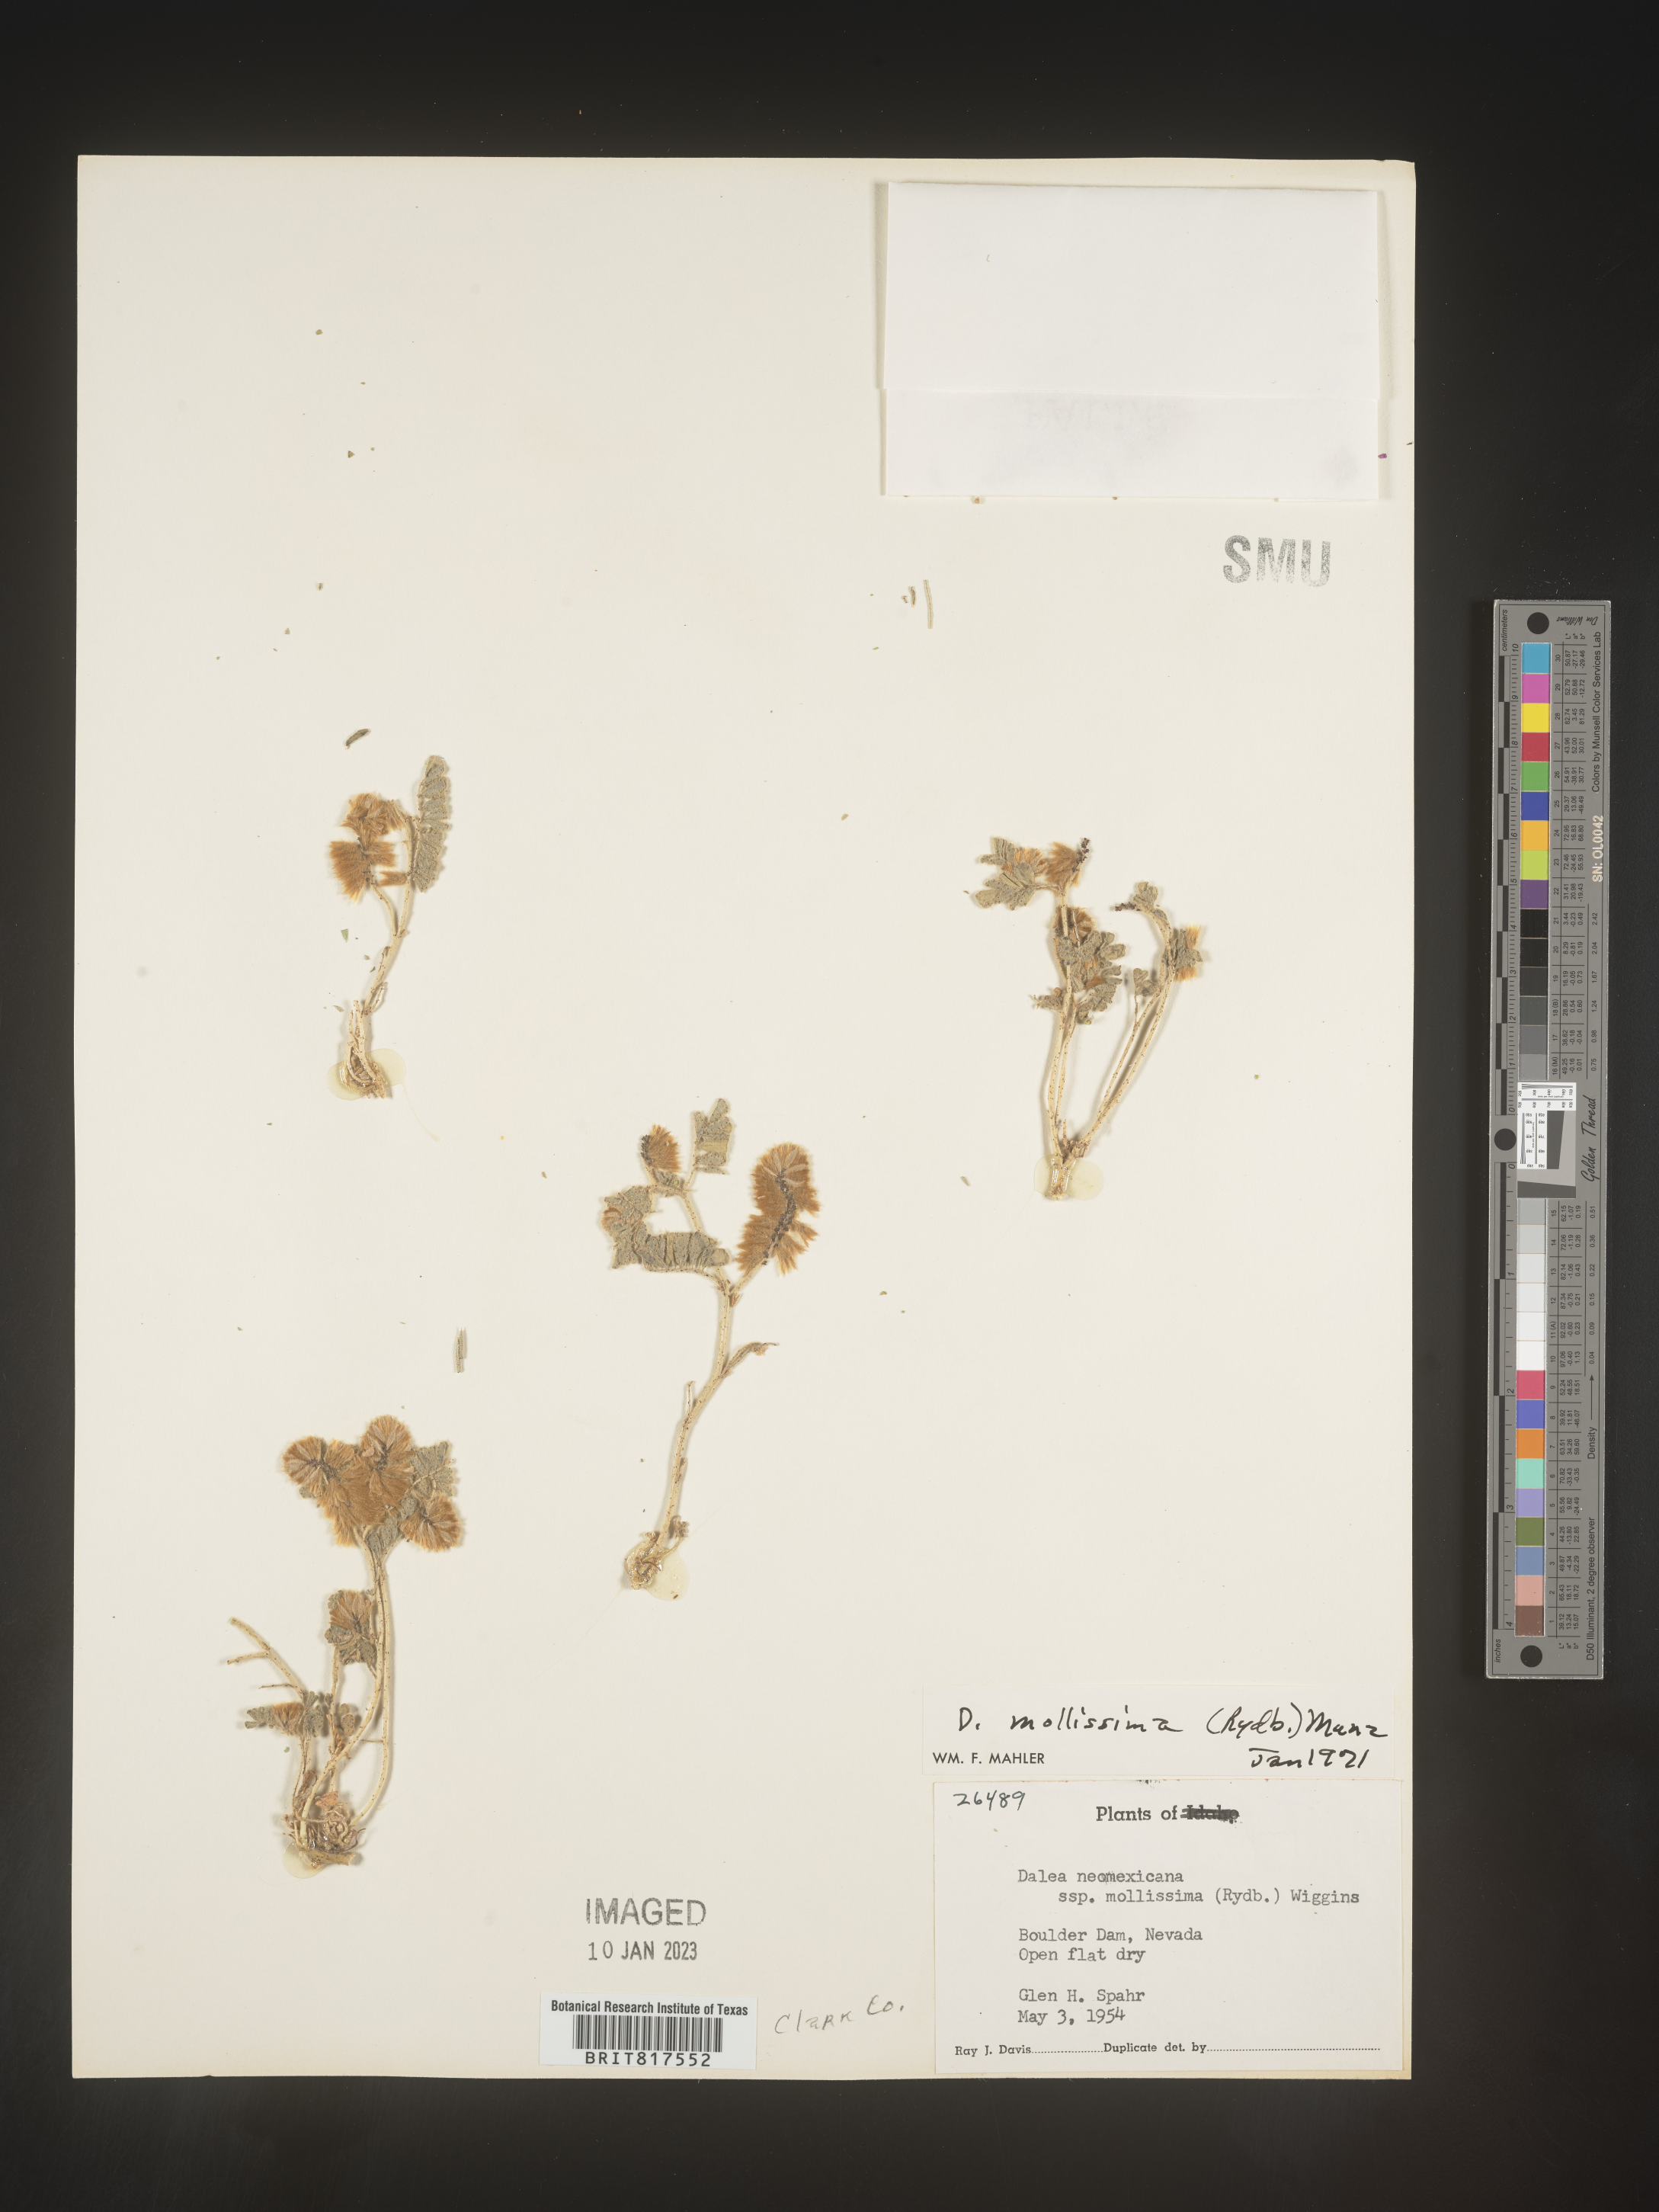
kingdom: Plantae
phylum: Tracheophyta
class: Magnoliopsida
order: Fabales
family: Fabaceae
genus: Dalea
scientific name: Dalea leporina
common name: Foxtail dalea
